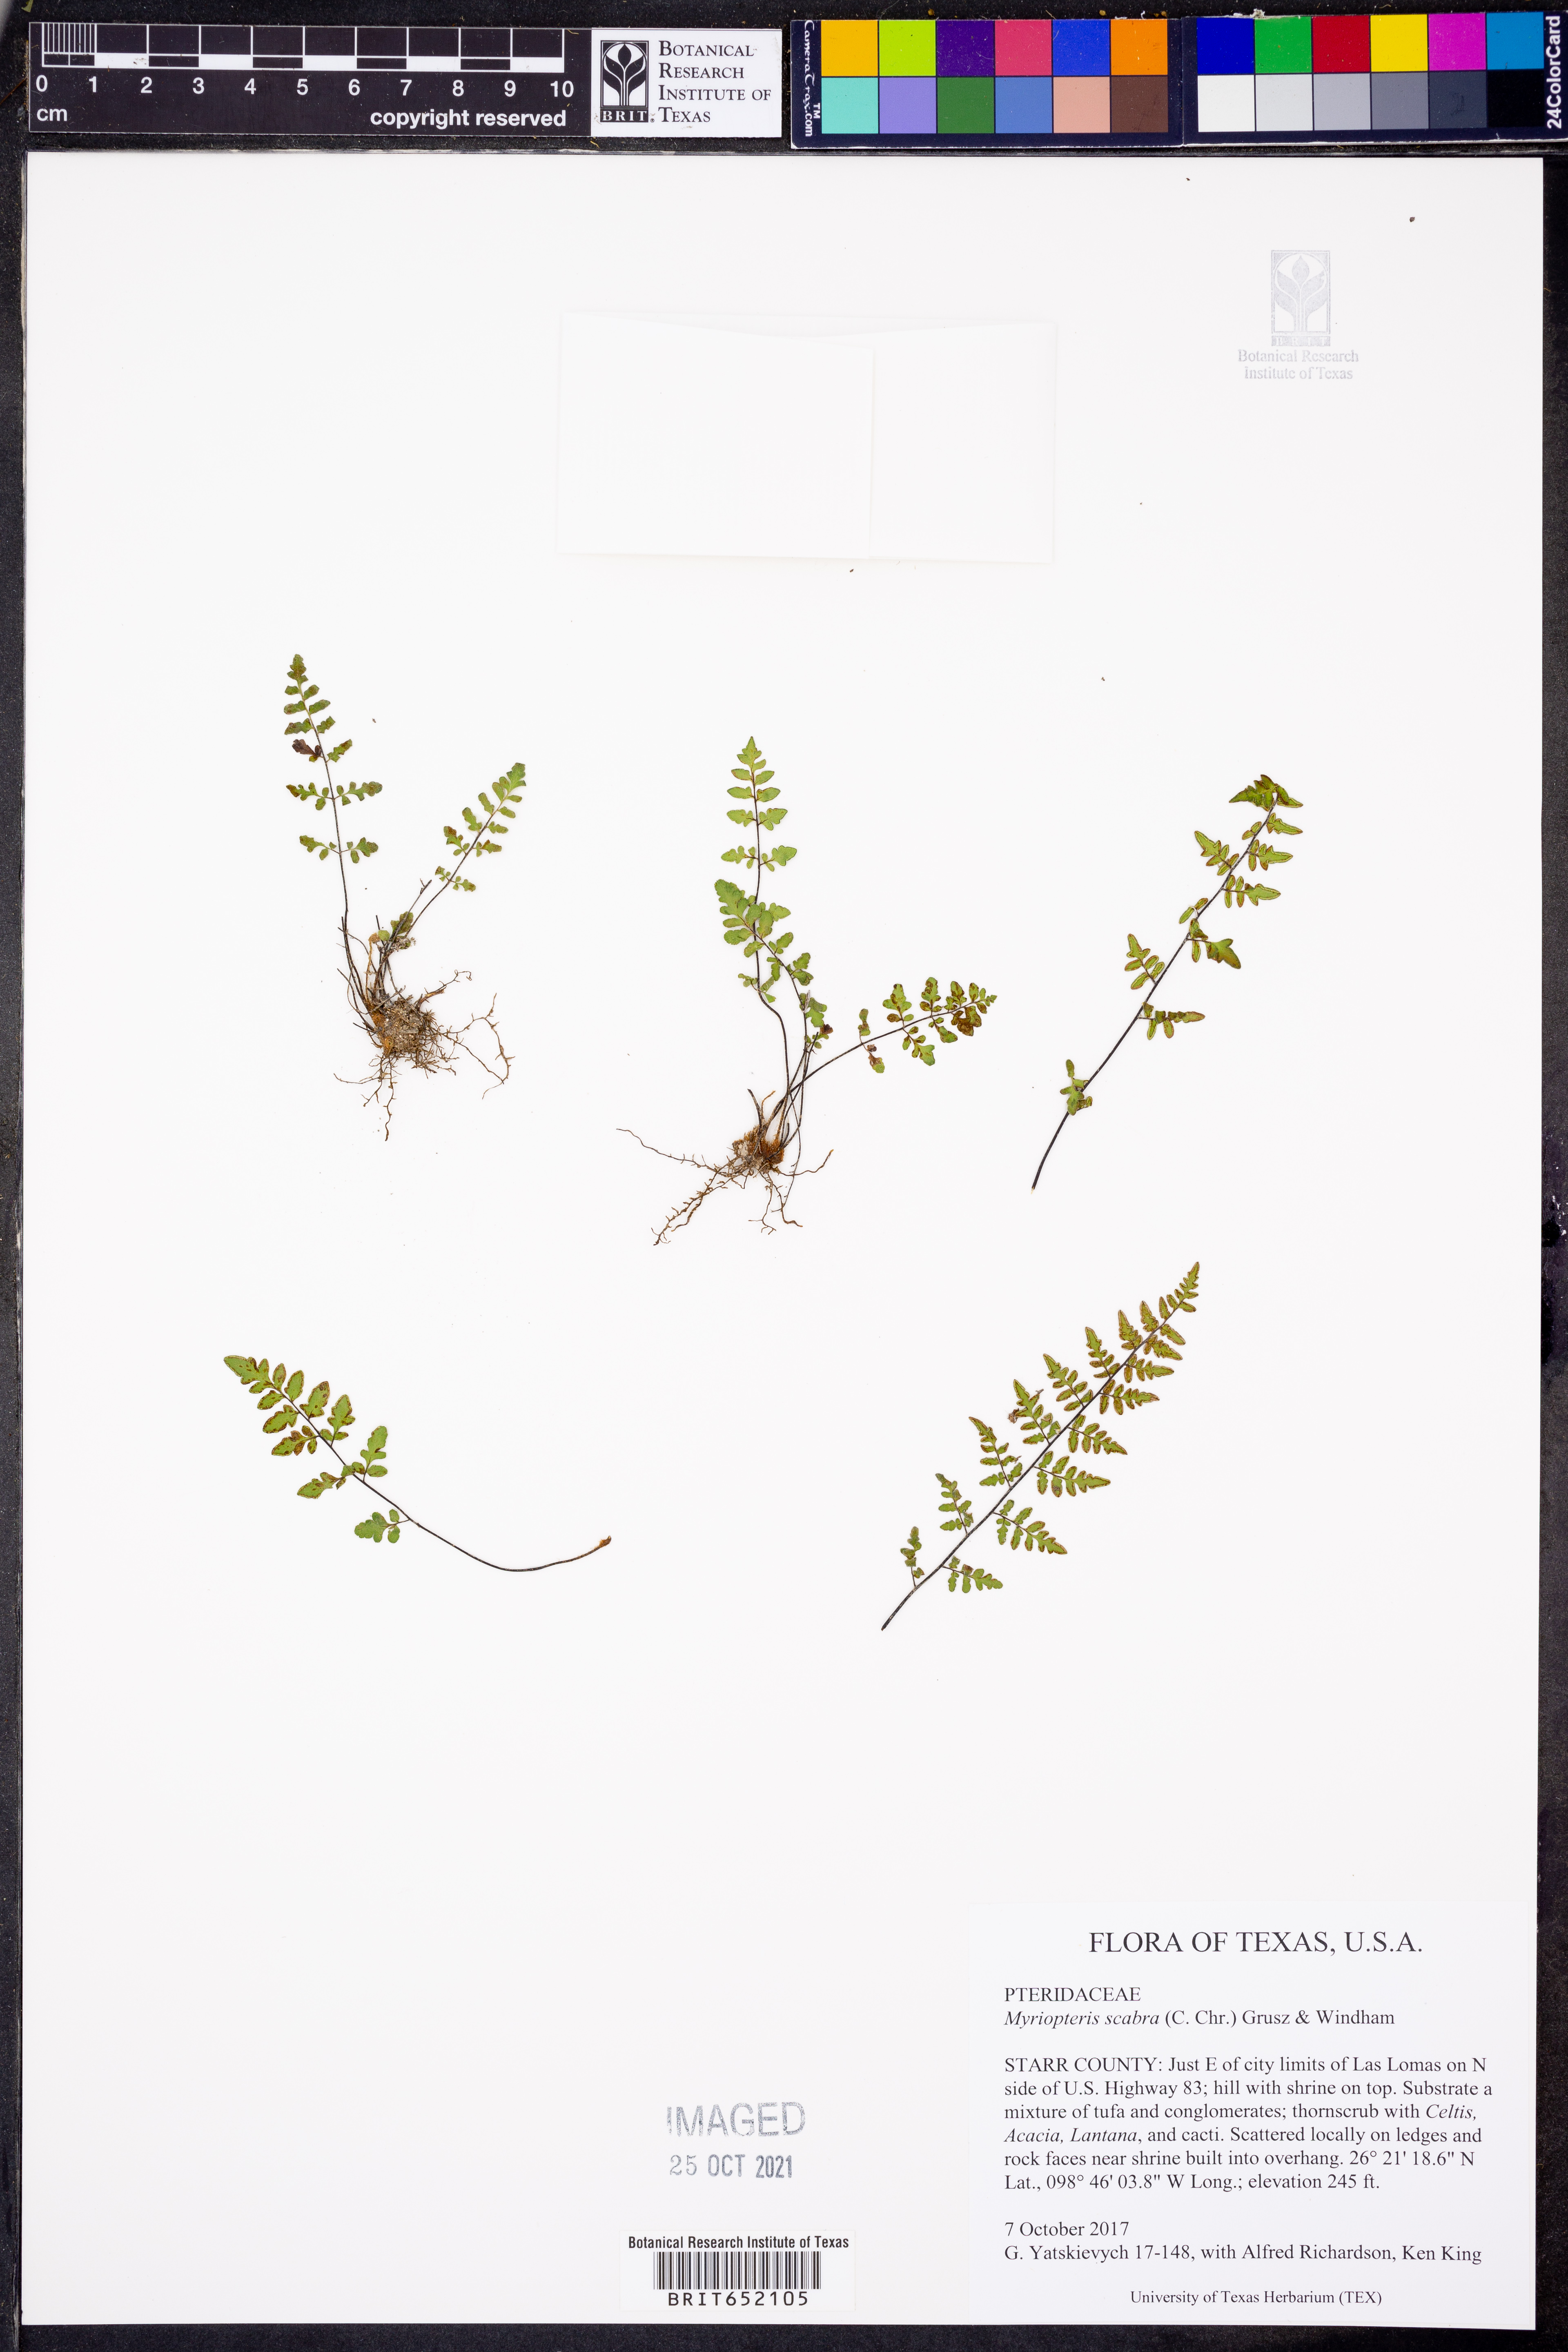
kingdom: Plantae
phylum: Tracheophyta
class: Polypodiopsida
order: Polypodiales
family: Pteridaceae
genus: Myriopteris
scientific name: Myriopteris scabra
